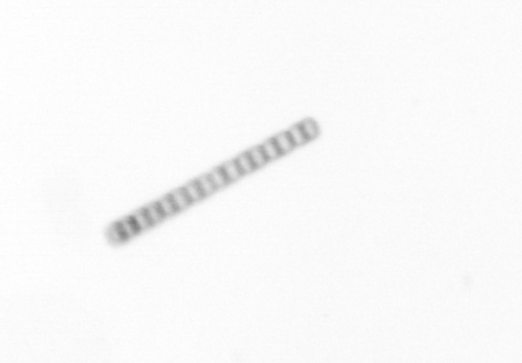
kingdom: Chromista
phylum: Ochrophyta
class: Bacillariophyceae
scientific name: Bacillariophyceae
